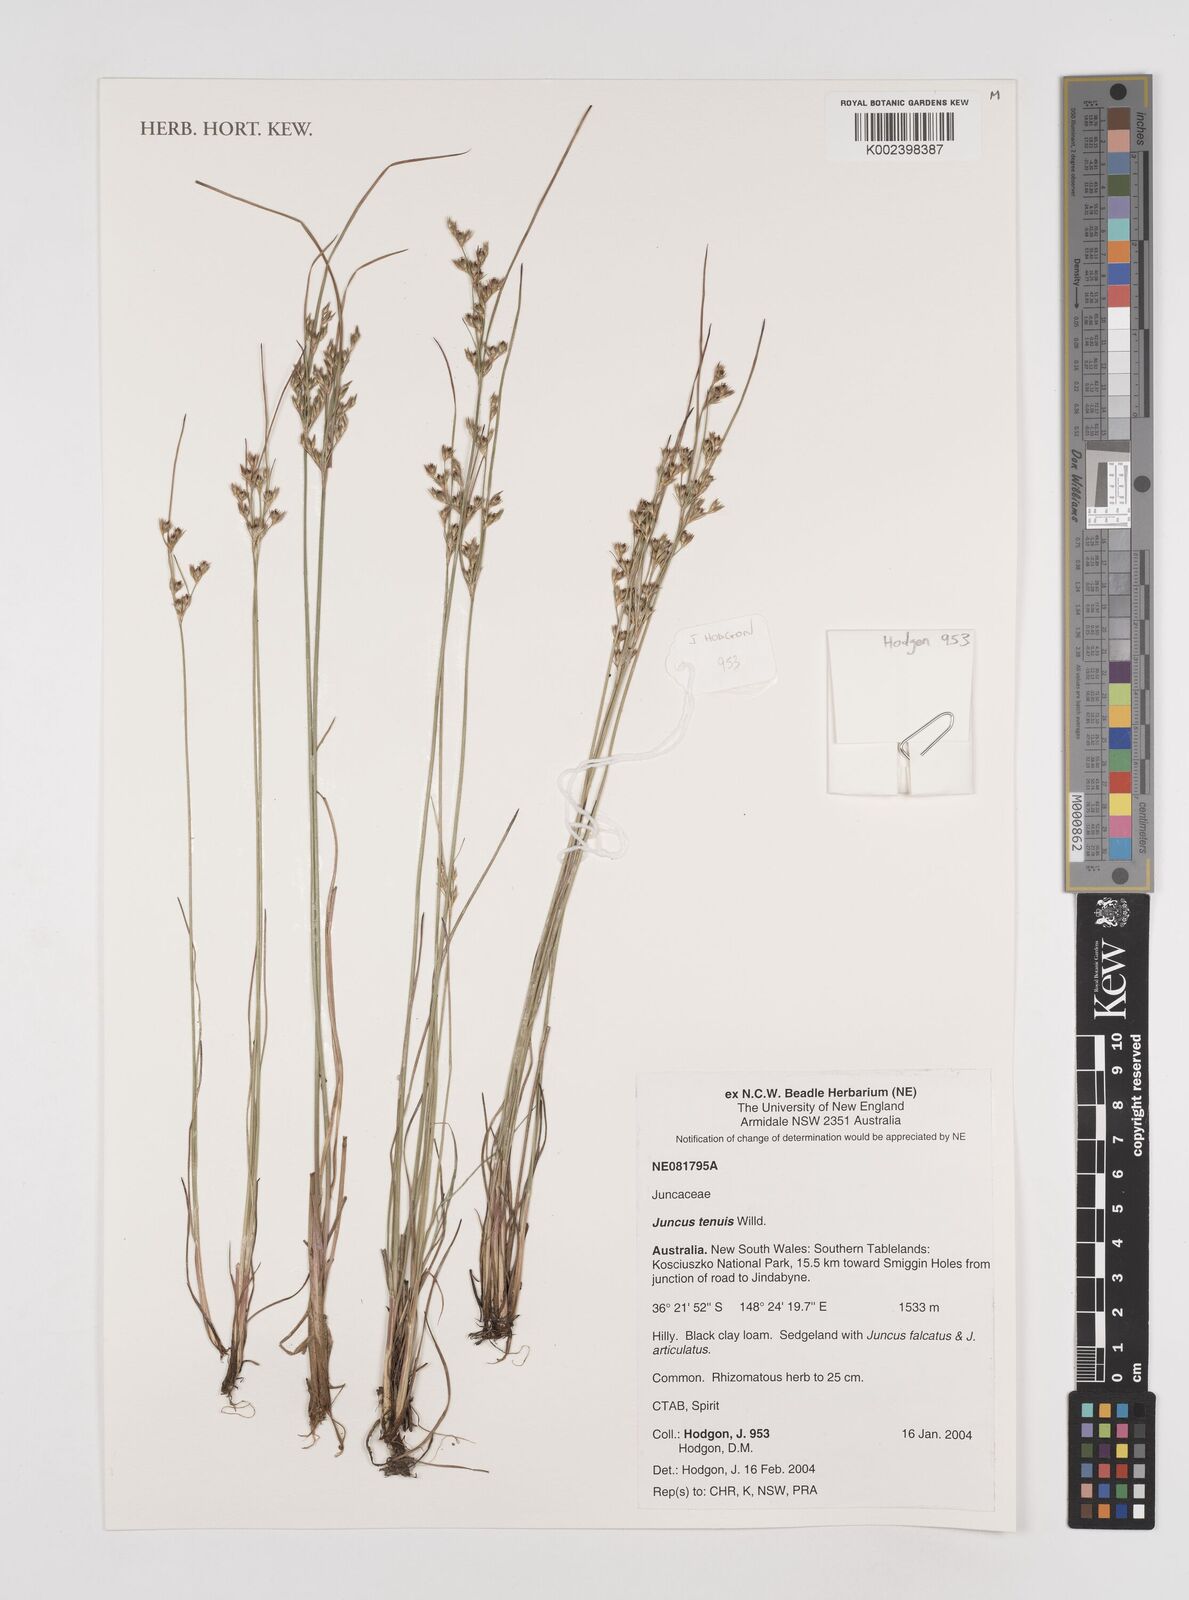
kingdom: Plantae
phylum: Tracheophyta
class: Liliopsida
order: Poales
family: Juncaceae
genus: Juncus
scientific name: Juncus tenuis
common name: Slender rush
